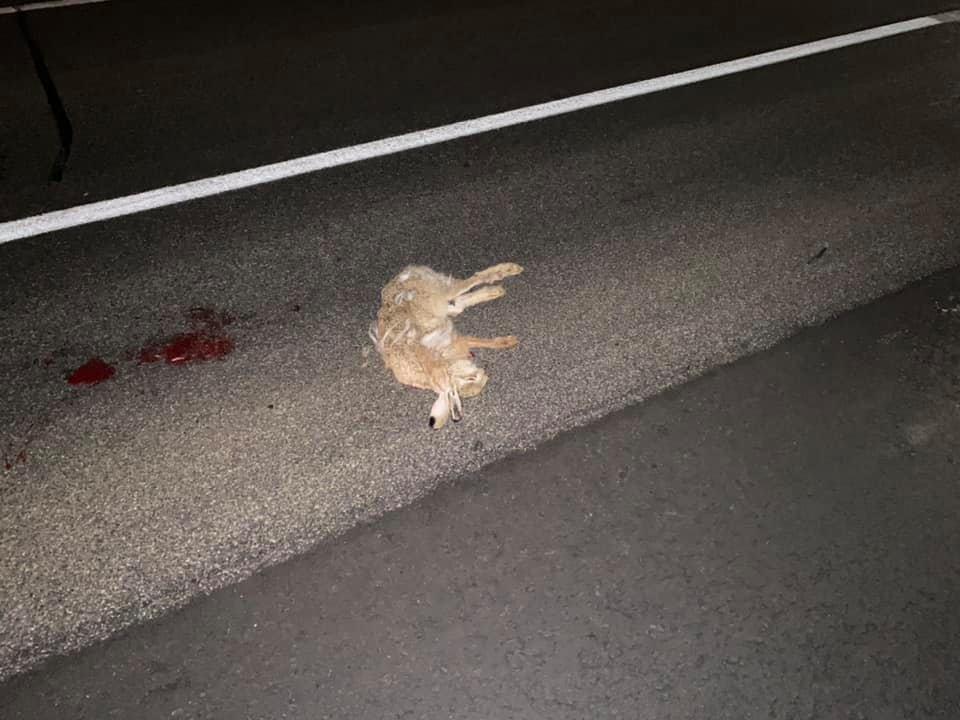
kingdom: Animalia
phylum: Chordata
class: Mammalia
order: Lagomorpha
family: Leporidae
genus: Lepus
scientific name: Lepus europaeus
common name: European hare
